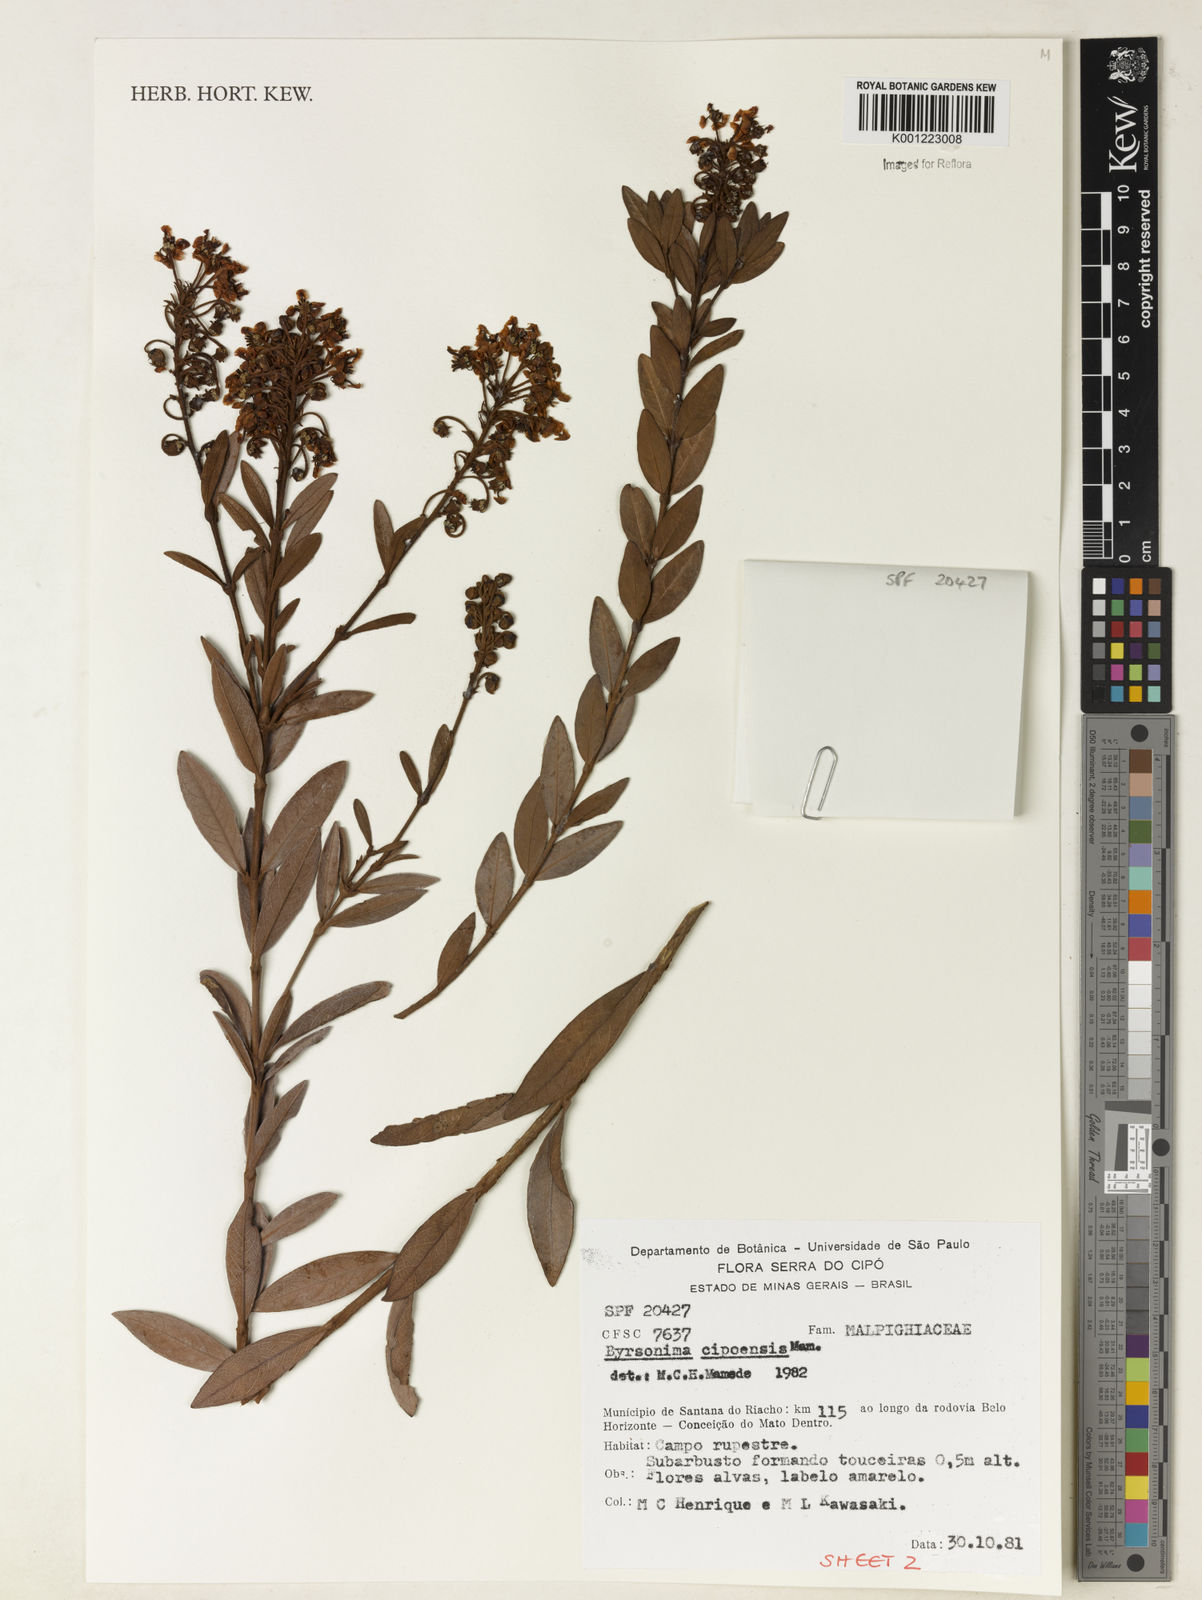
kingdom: Plantae
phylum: Tracheophyta
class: Magnoliopsida
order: Malpighiales
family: Malpighiaceae
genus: Byrsonima
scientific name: Byrsonima cipoensis
